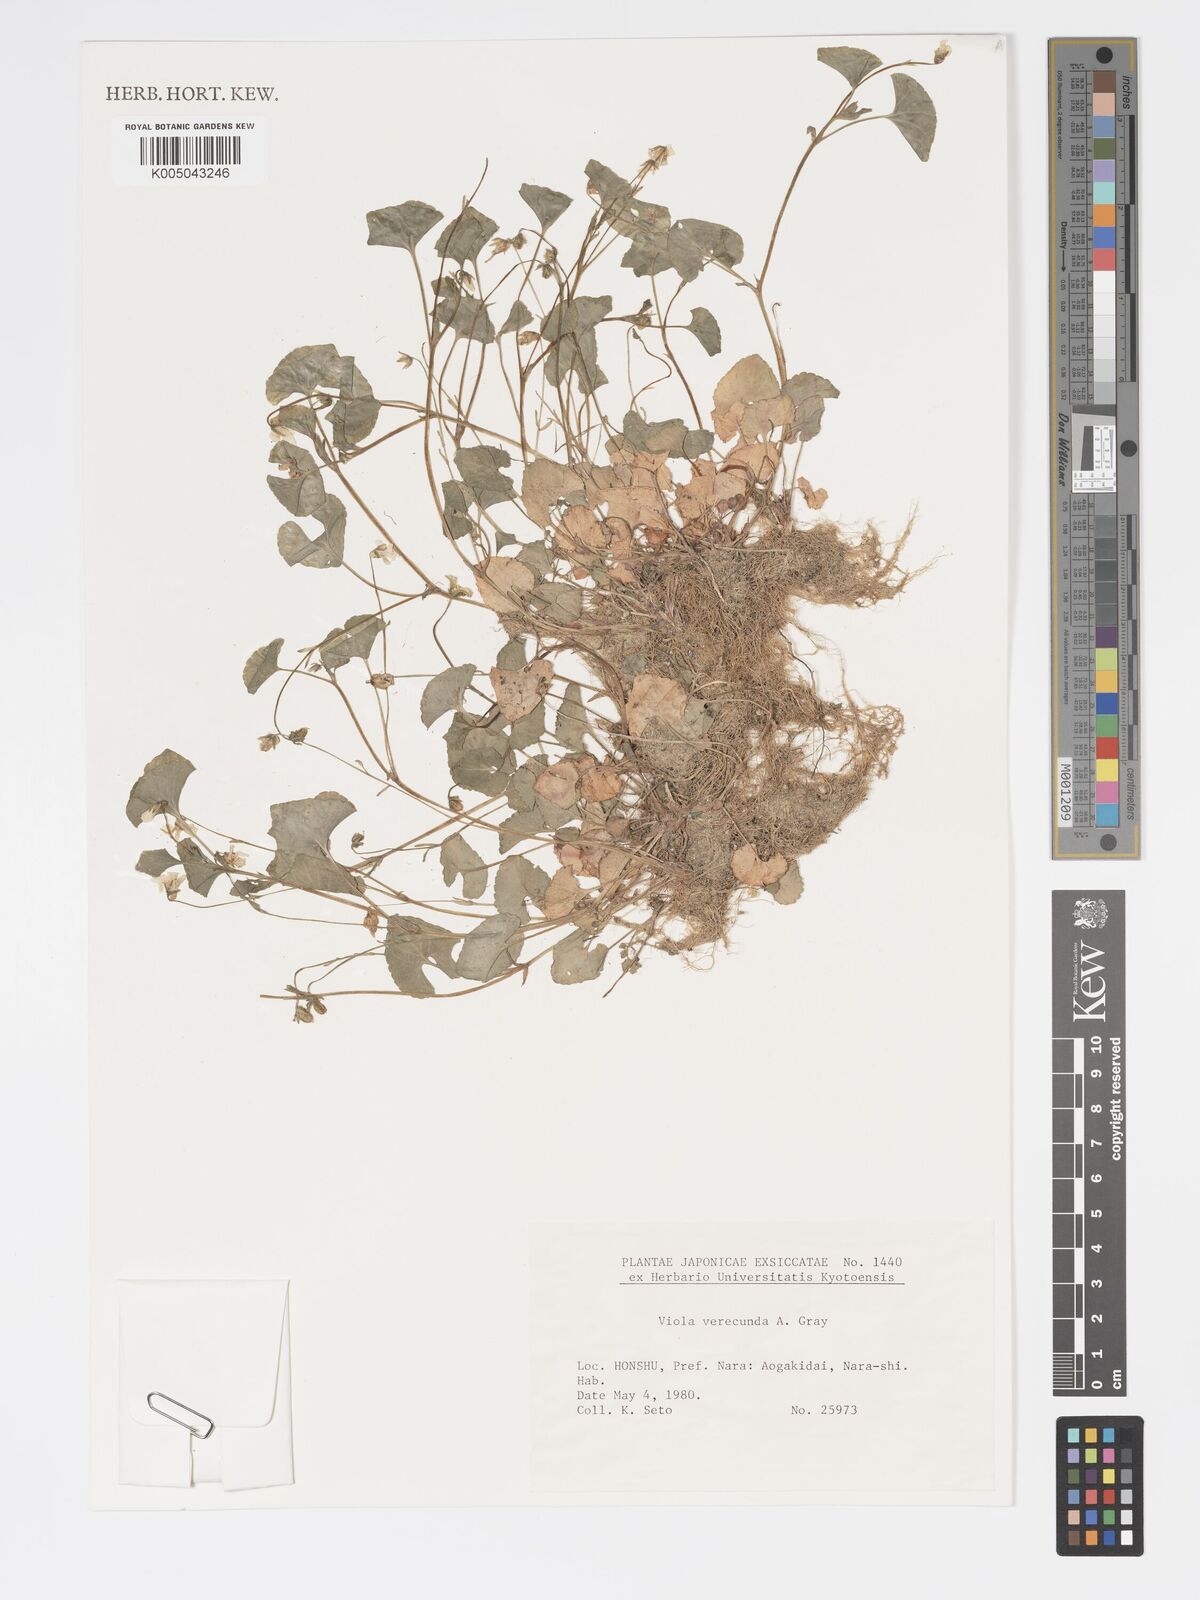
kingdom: Plantae
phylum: Tracheophyta
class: Magnoliopsida
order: Malpighiales
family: Violaceae
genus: Viola
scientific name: Viola hamiltoniana
